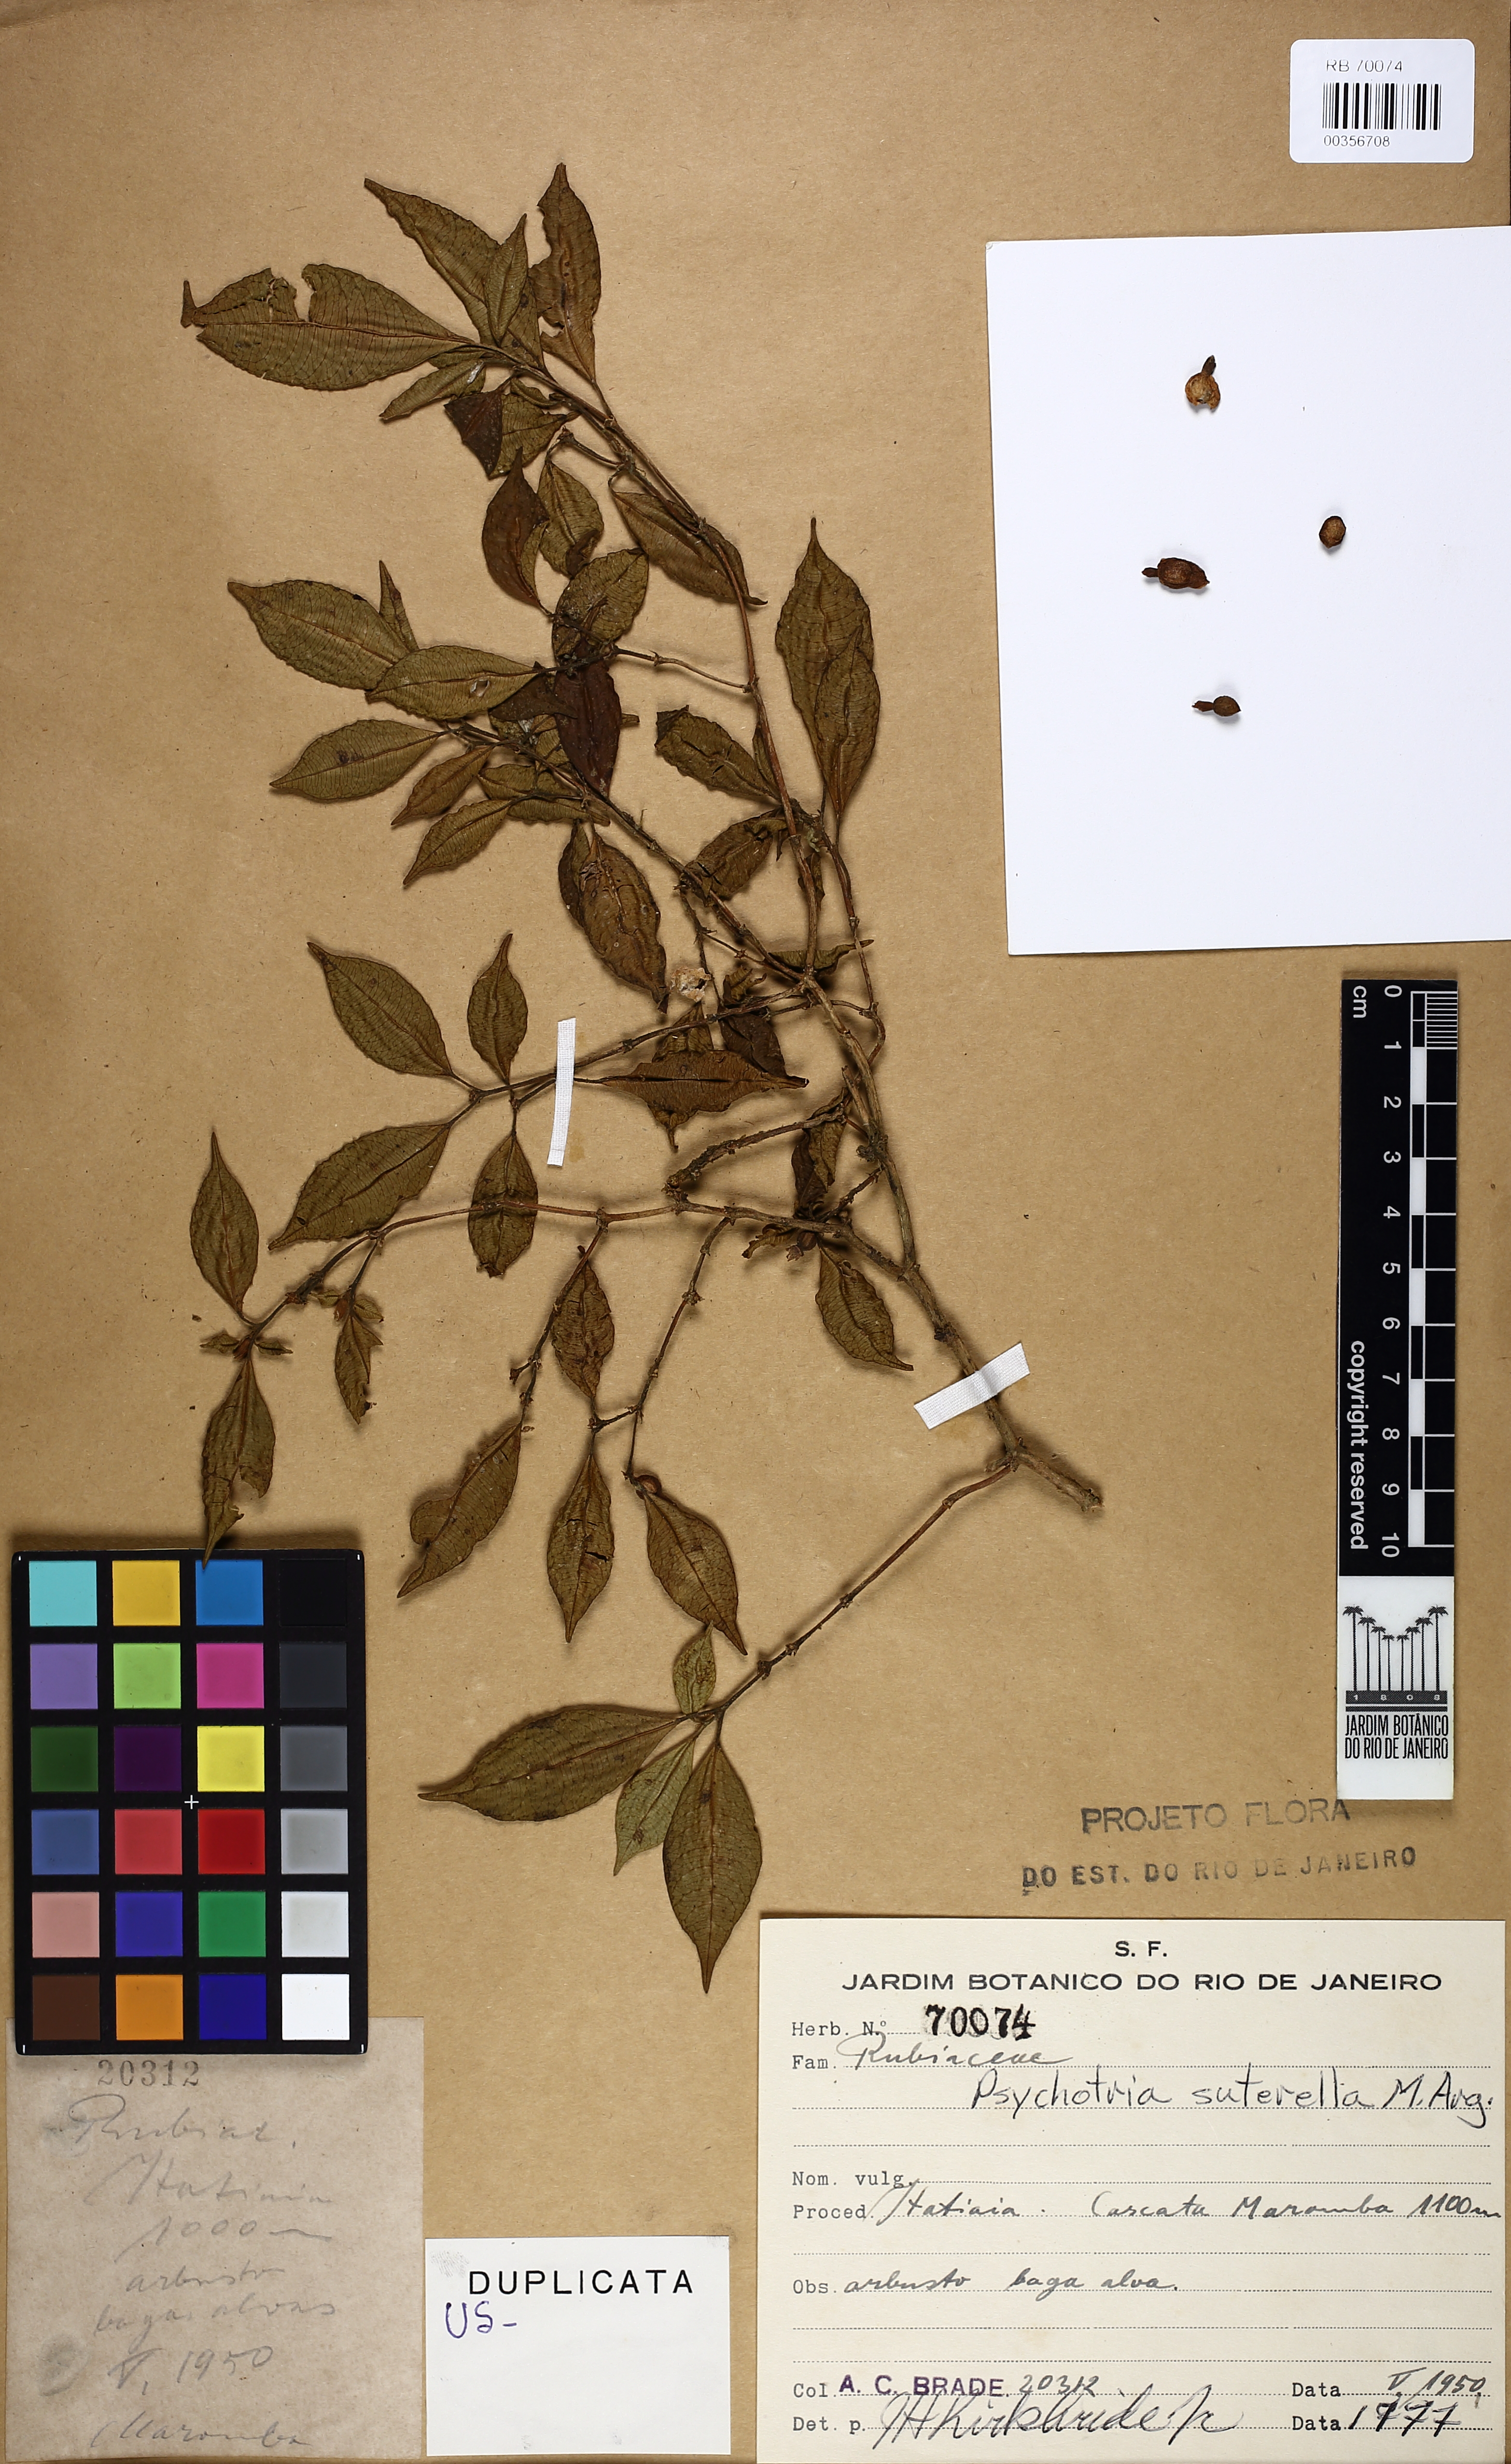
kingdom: Plantae
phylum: Tracheophyta
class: Magnoliopsida
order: Gentianales
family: Rubiaceae
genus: Psychotria
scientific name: Psychotria suterella
